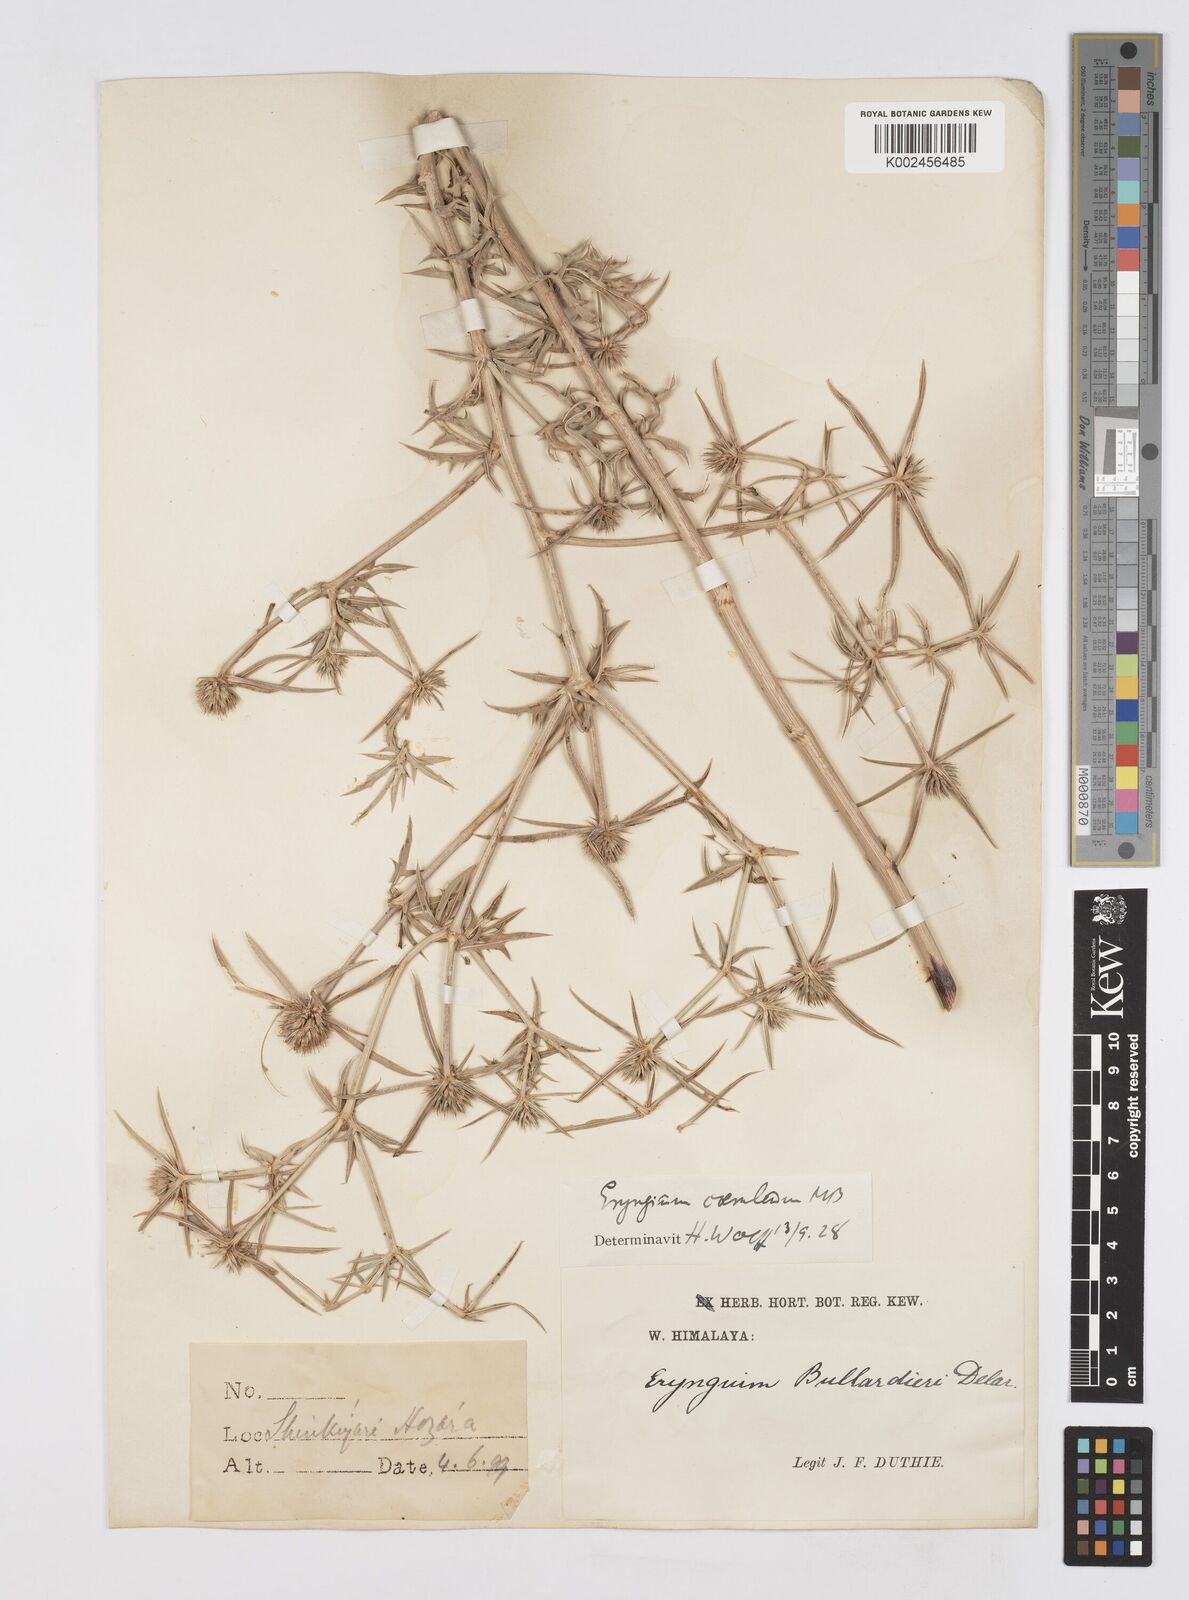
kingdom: Plantae
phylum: Tracheophyta
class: Magnoliopsida
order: Apiales
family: Apiaceae
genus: Eryngium
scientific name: Eryngium caeruleum
